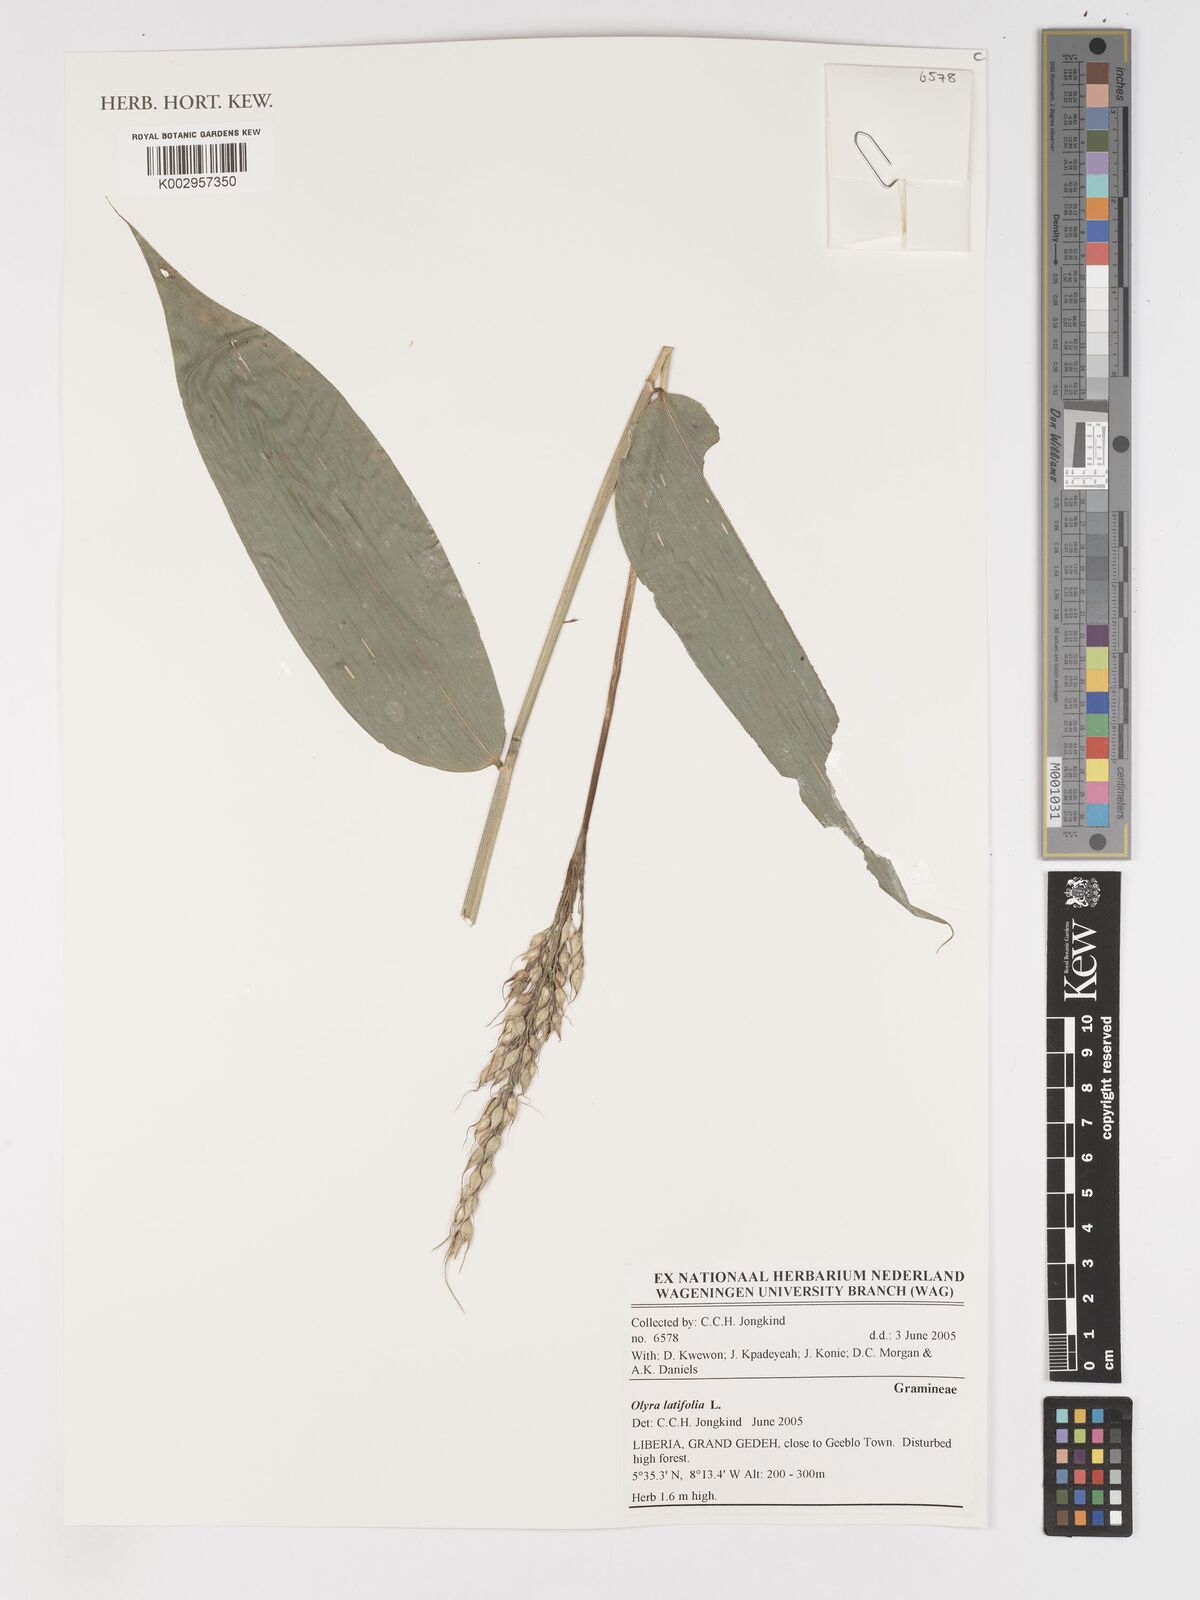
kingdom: Plantae
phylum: Tracheophyta
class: Liliopsida
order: Poales
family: Poaceae
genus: Olyra
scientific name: Olyra latifolia
